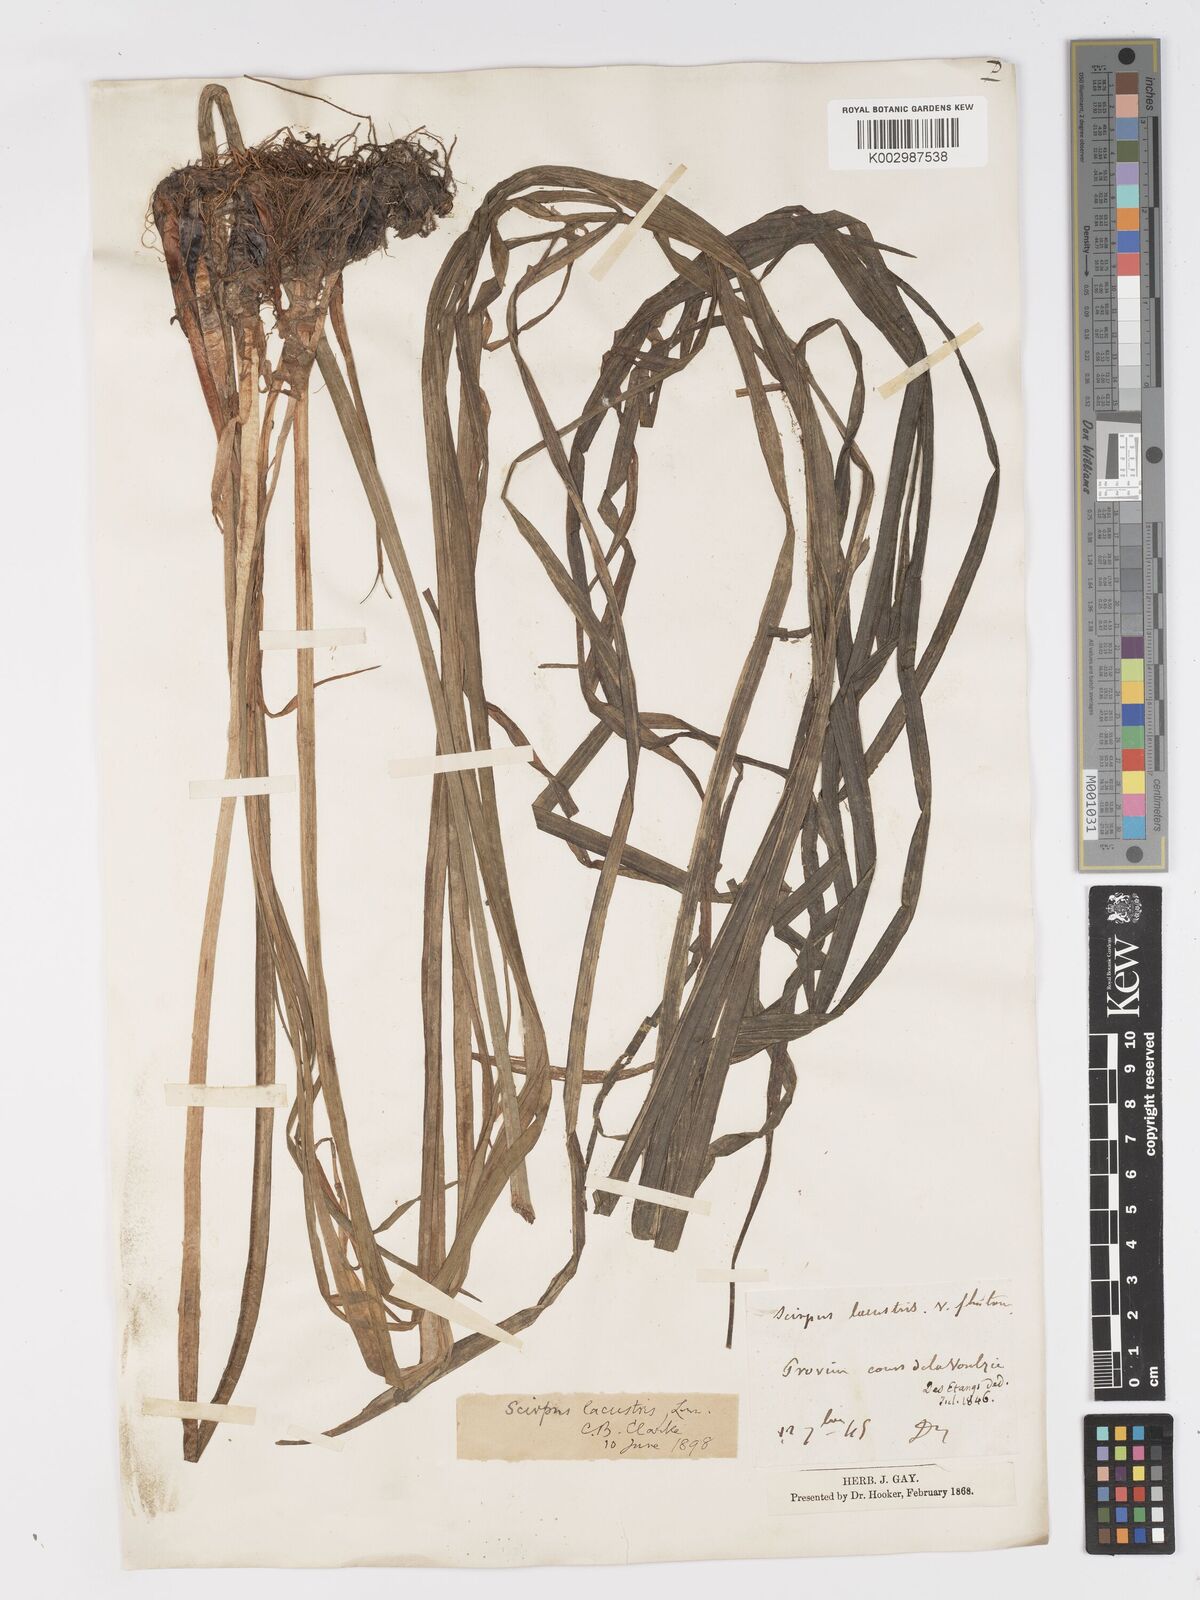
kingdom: Plantae
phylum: Tracheophyta
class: Liliopsida
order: Poales
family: Cyperaceae
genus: Schoenoplectus
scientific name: Schoenoplectus lacustris
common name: Common club-rush
